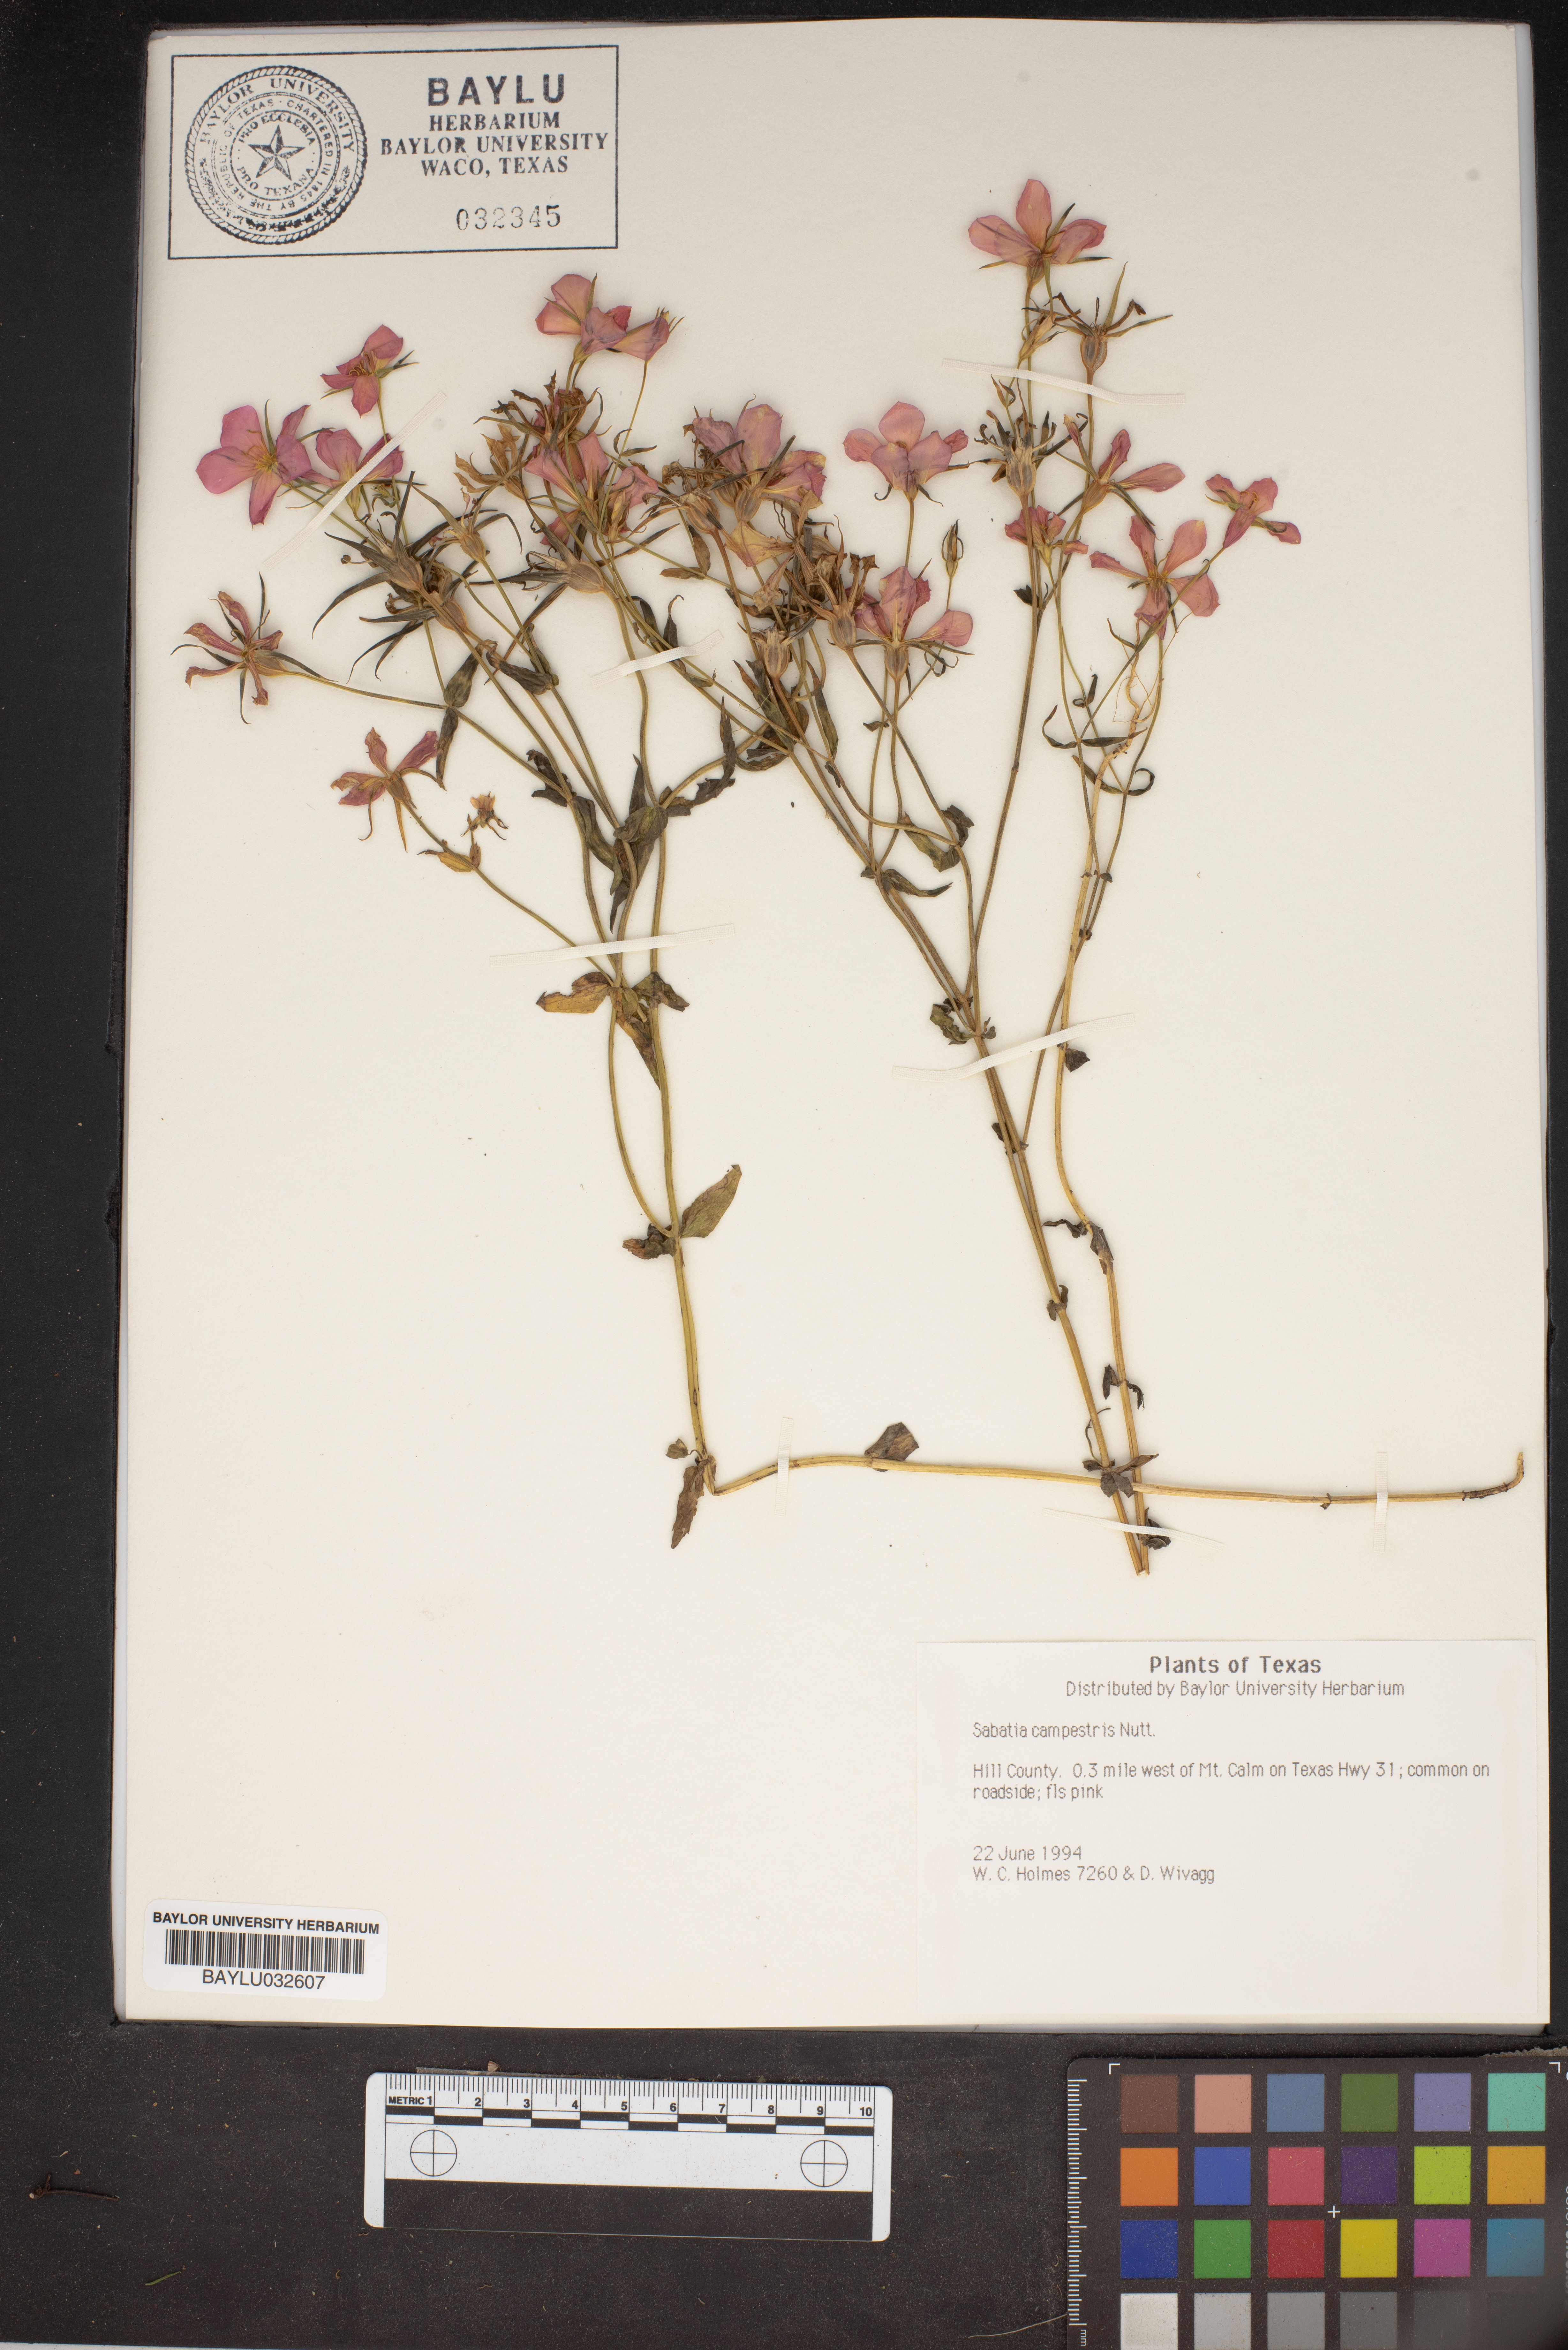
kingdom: Plantae
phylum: Tracheophyta
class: Magnoliopsida
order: Gentianales
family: Gentianaceae
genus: Sabatia
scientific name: Sabatia campestris
